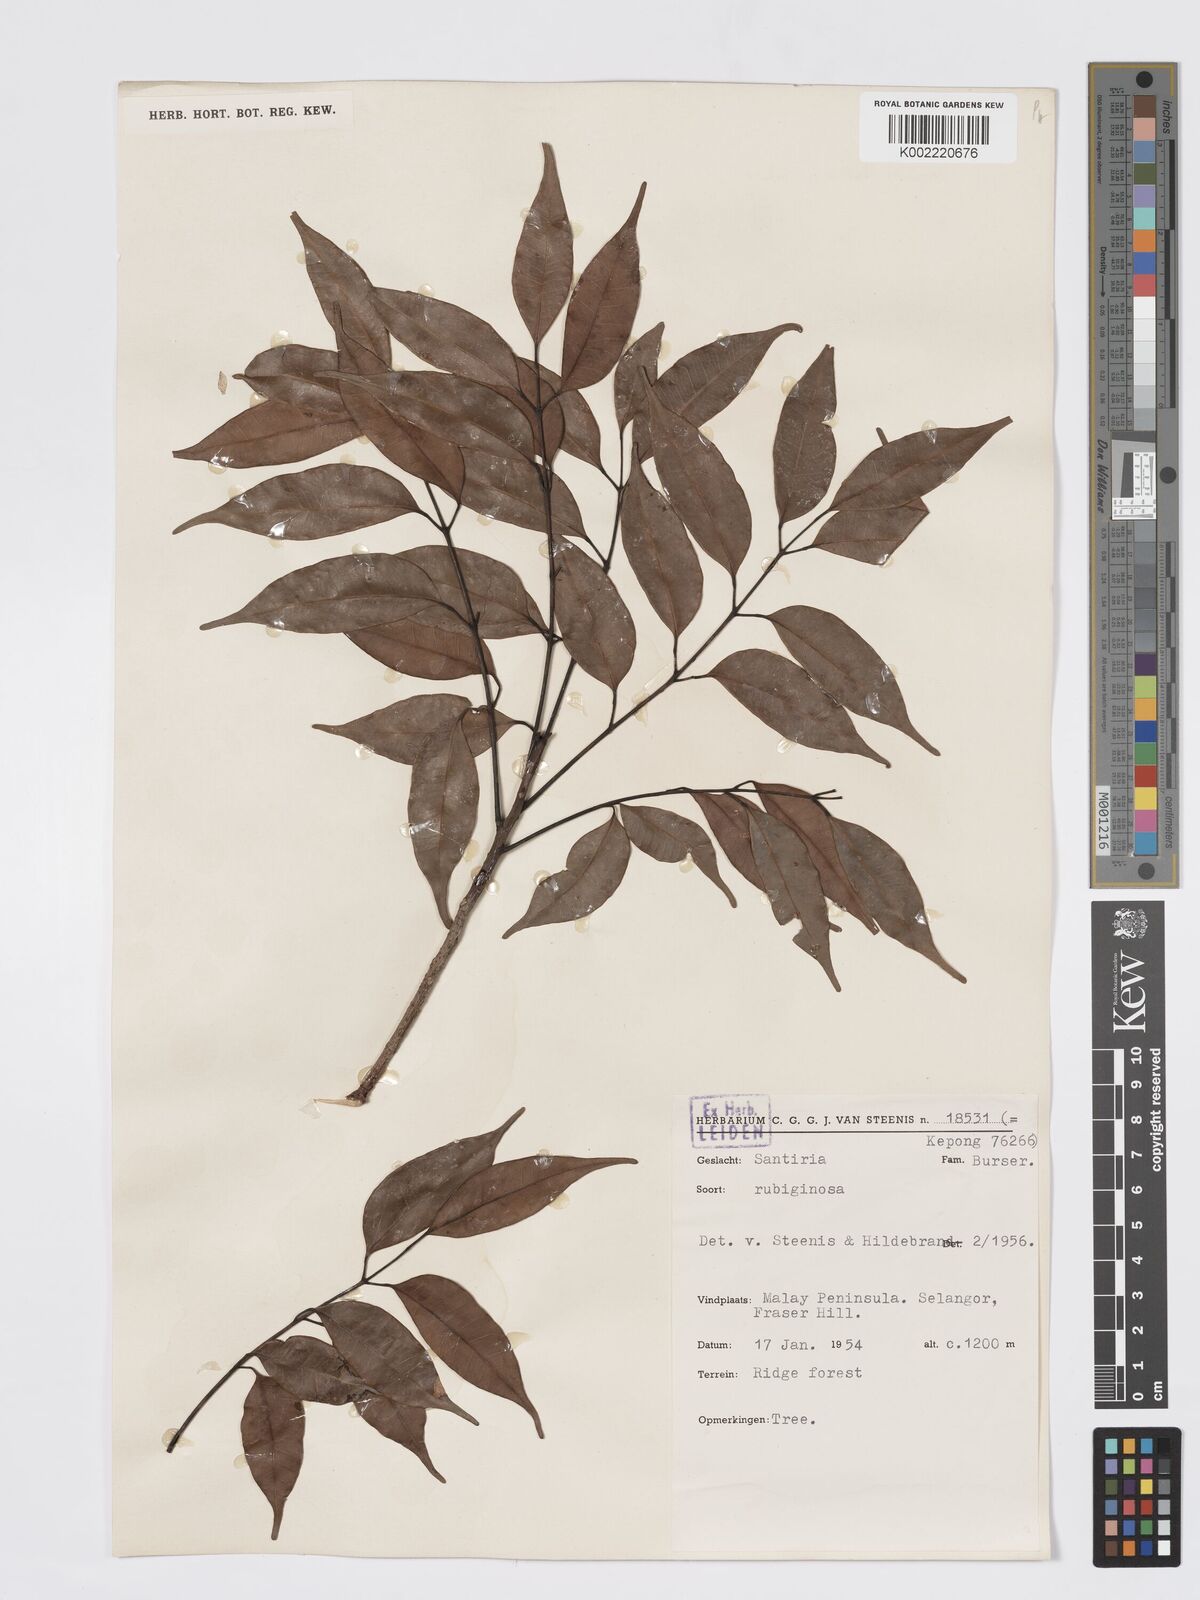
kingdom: Plantae
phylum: Tracheophyta
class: Magnoliopsida
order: Sapindales
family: Burseraceae
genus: Santiria
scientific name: Santiria rubiginosa
